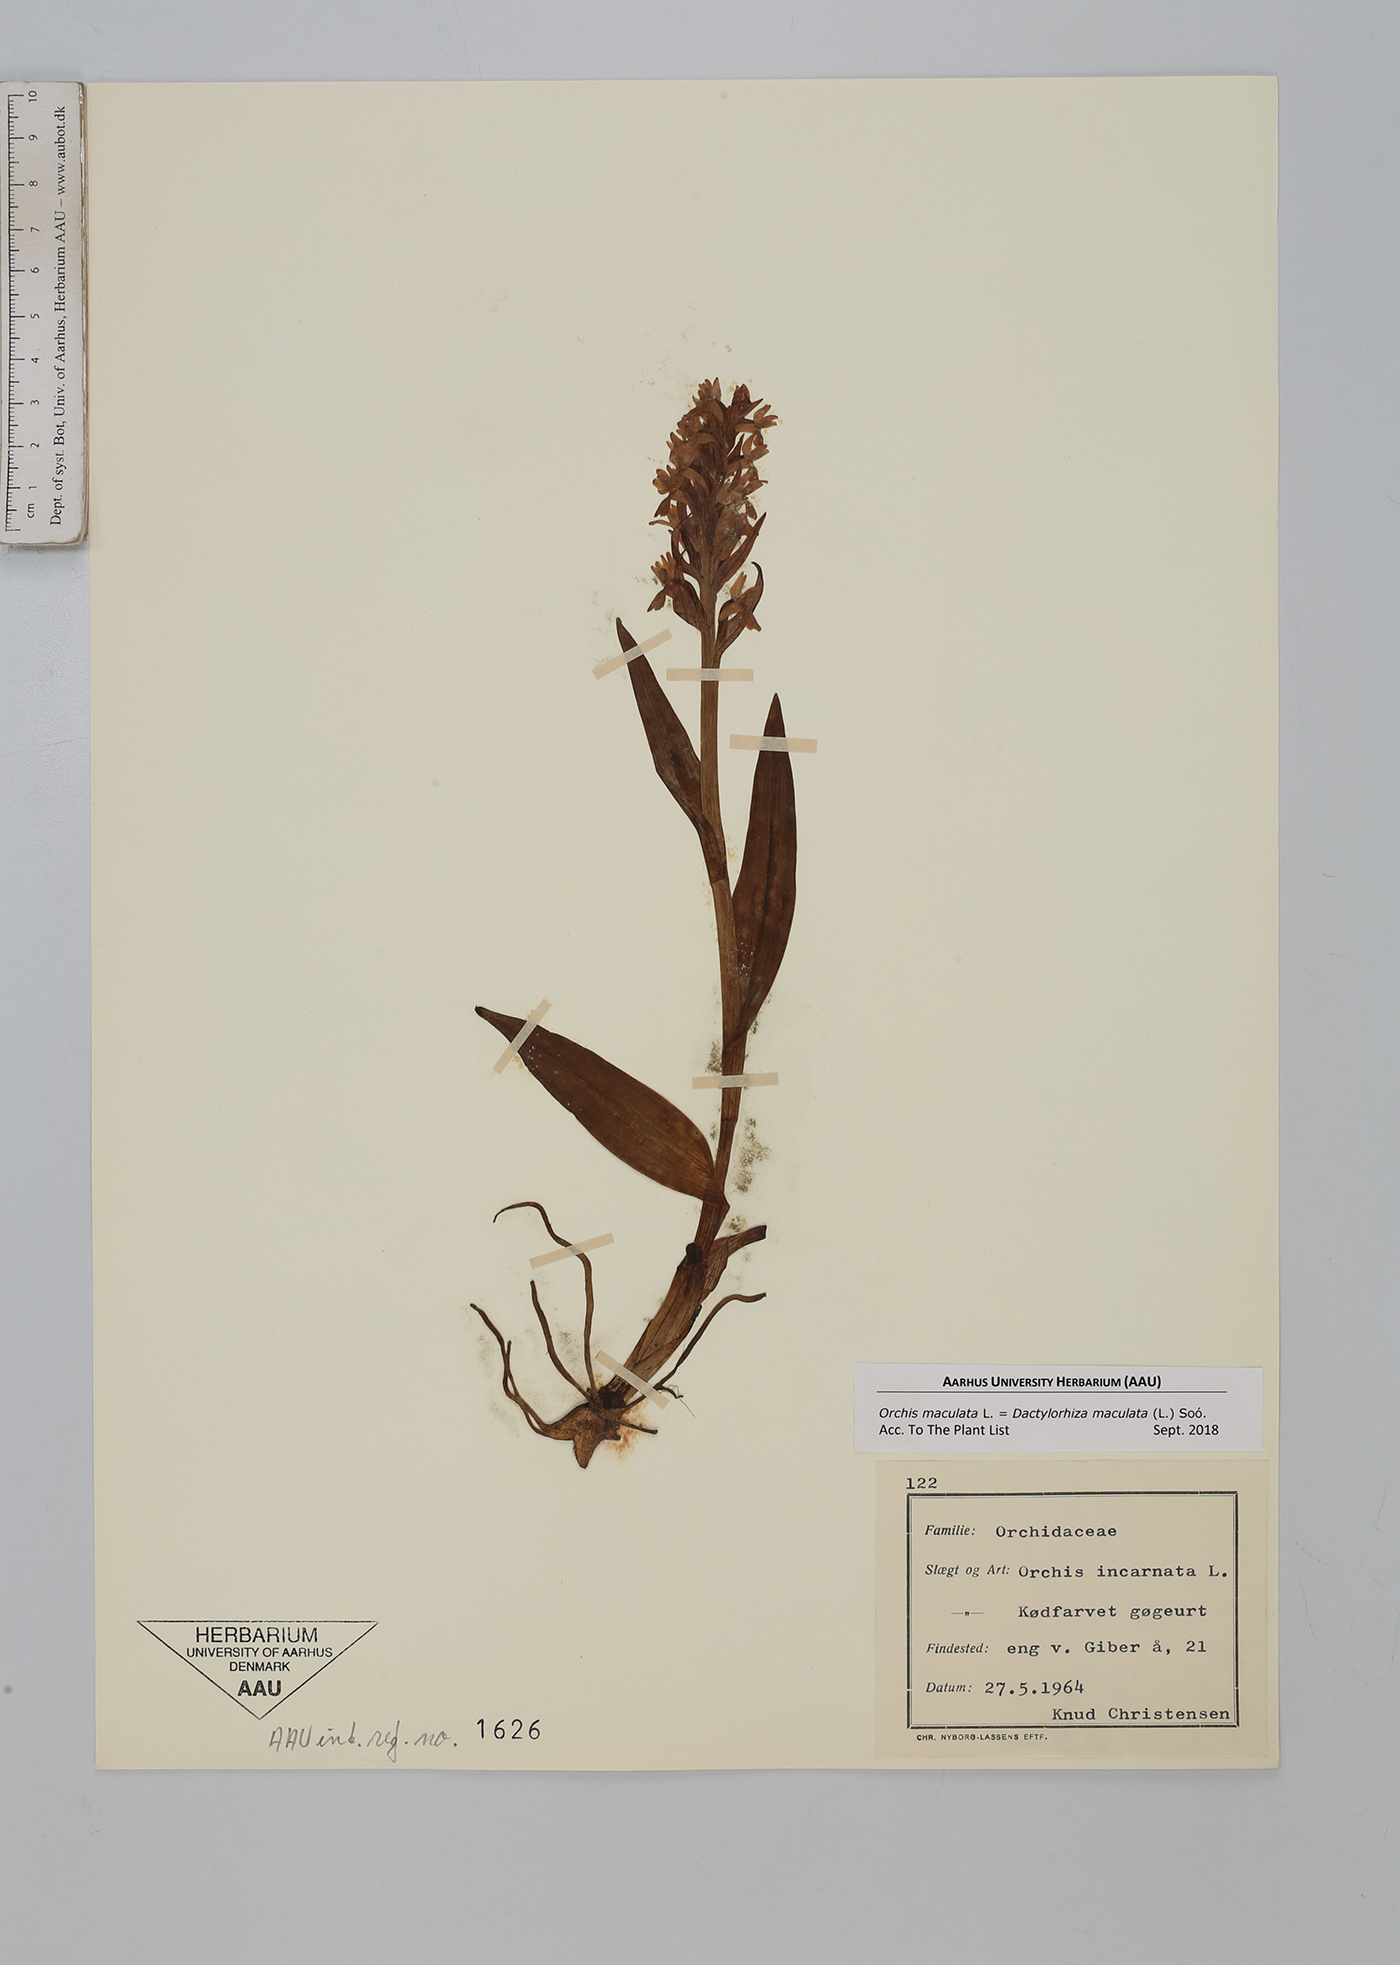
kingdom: Plantae
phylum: Tracheophyta
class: Liliopsida
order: Asparagales
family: Orchidaceae
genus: Dactylorhiza
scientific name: Dactylorhiza incarnata
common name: Early marsh-orchid
